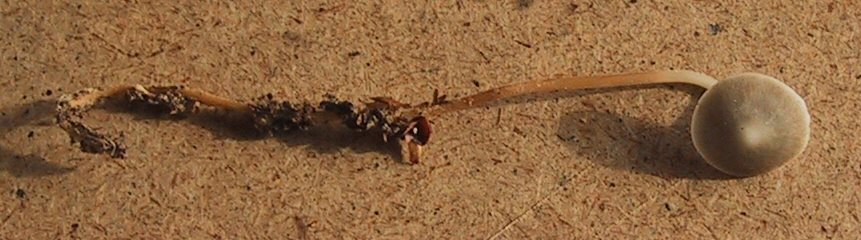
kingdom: Fungi
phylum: Basidiomycota
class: Agaricomycetes
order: Agaricales
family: Physalacriaceae
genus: Strobilurus
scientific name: Strobilurus esculentus
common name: gran-koglehat
